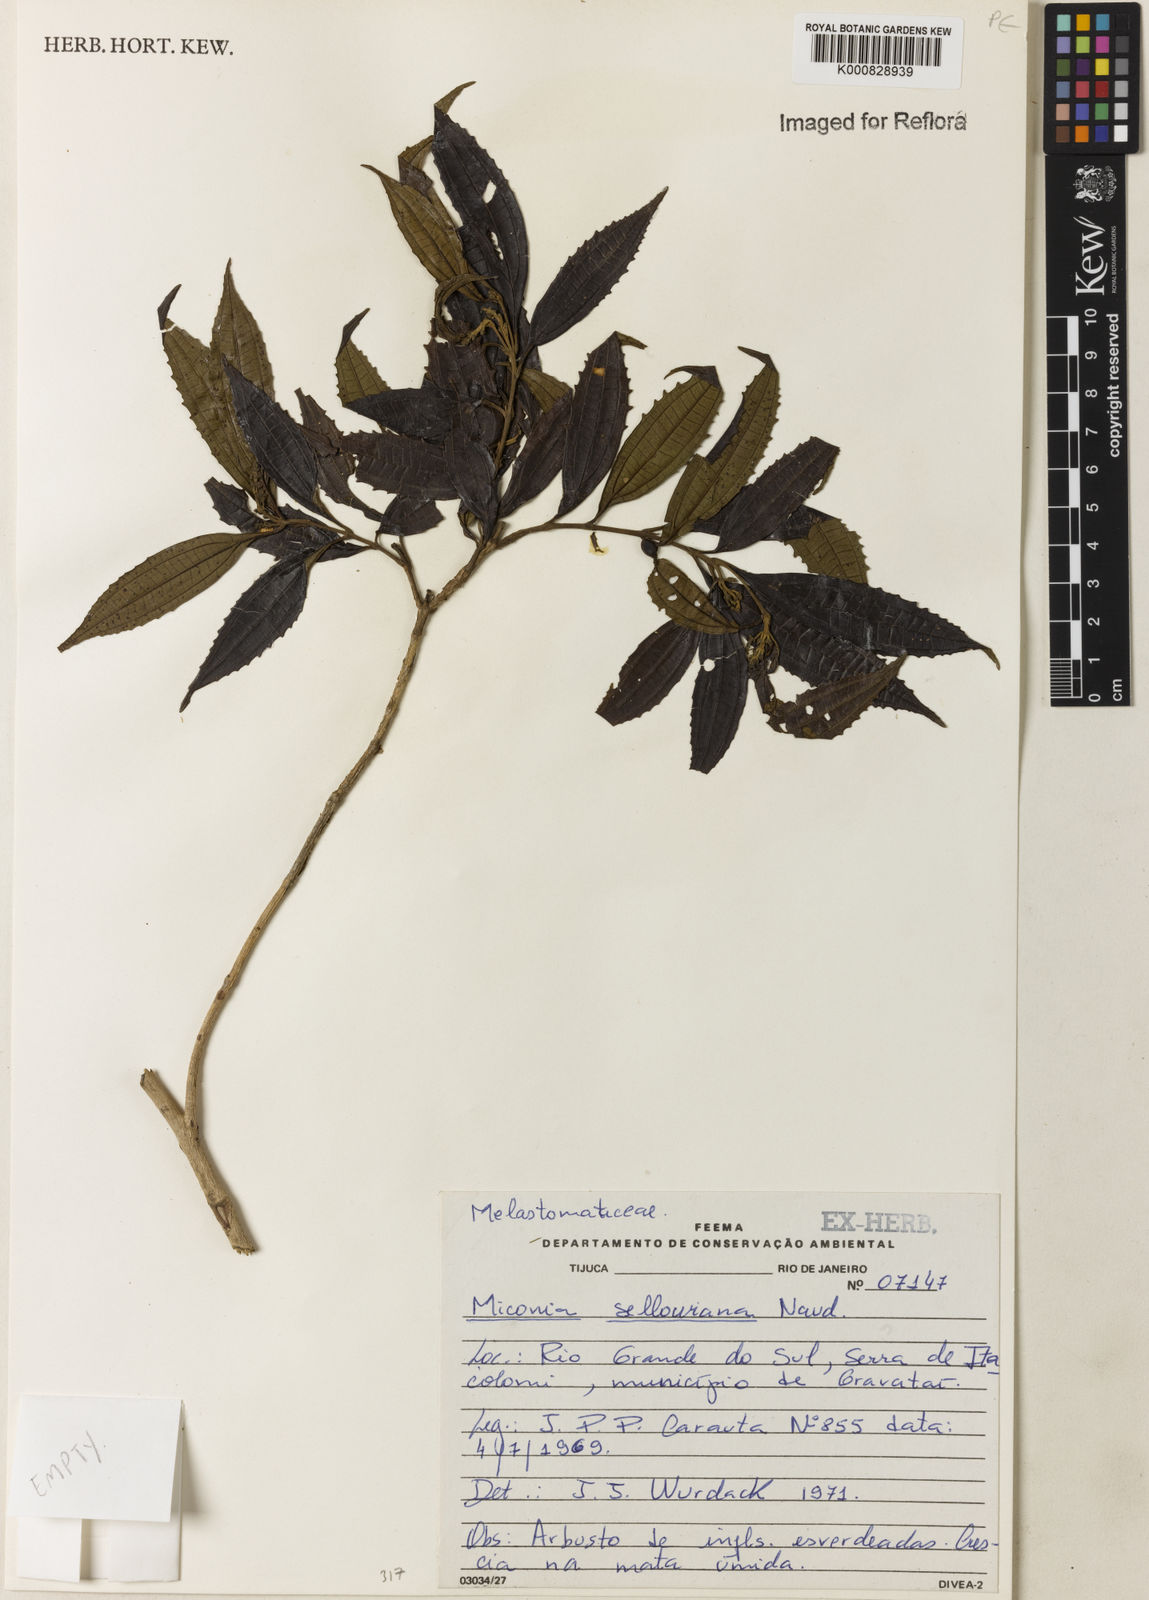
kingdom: Plantae
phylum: Tracheophyta
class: Magnoliopsida
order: Myrtales
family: Melastomataceae
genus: Miconia
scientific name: Miconia sellowiana
